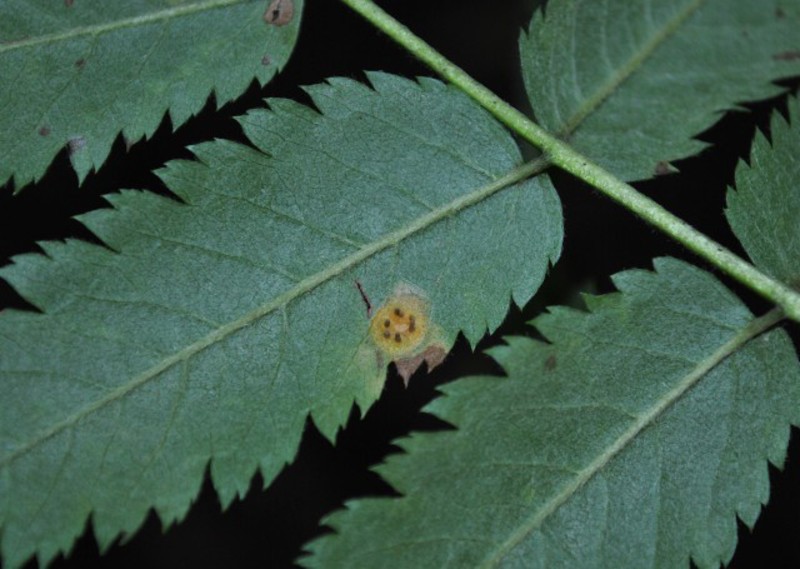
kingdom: Fungi
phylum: Basidiomycota
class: Pucciniomycetes
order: Pucciniales
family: Gymnosporangiaceae
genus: Gymnosporangium
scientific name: Gymnosporangium cornutum
